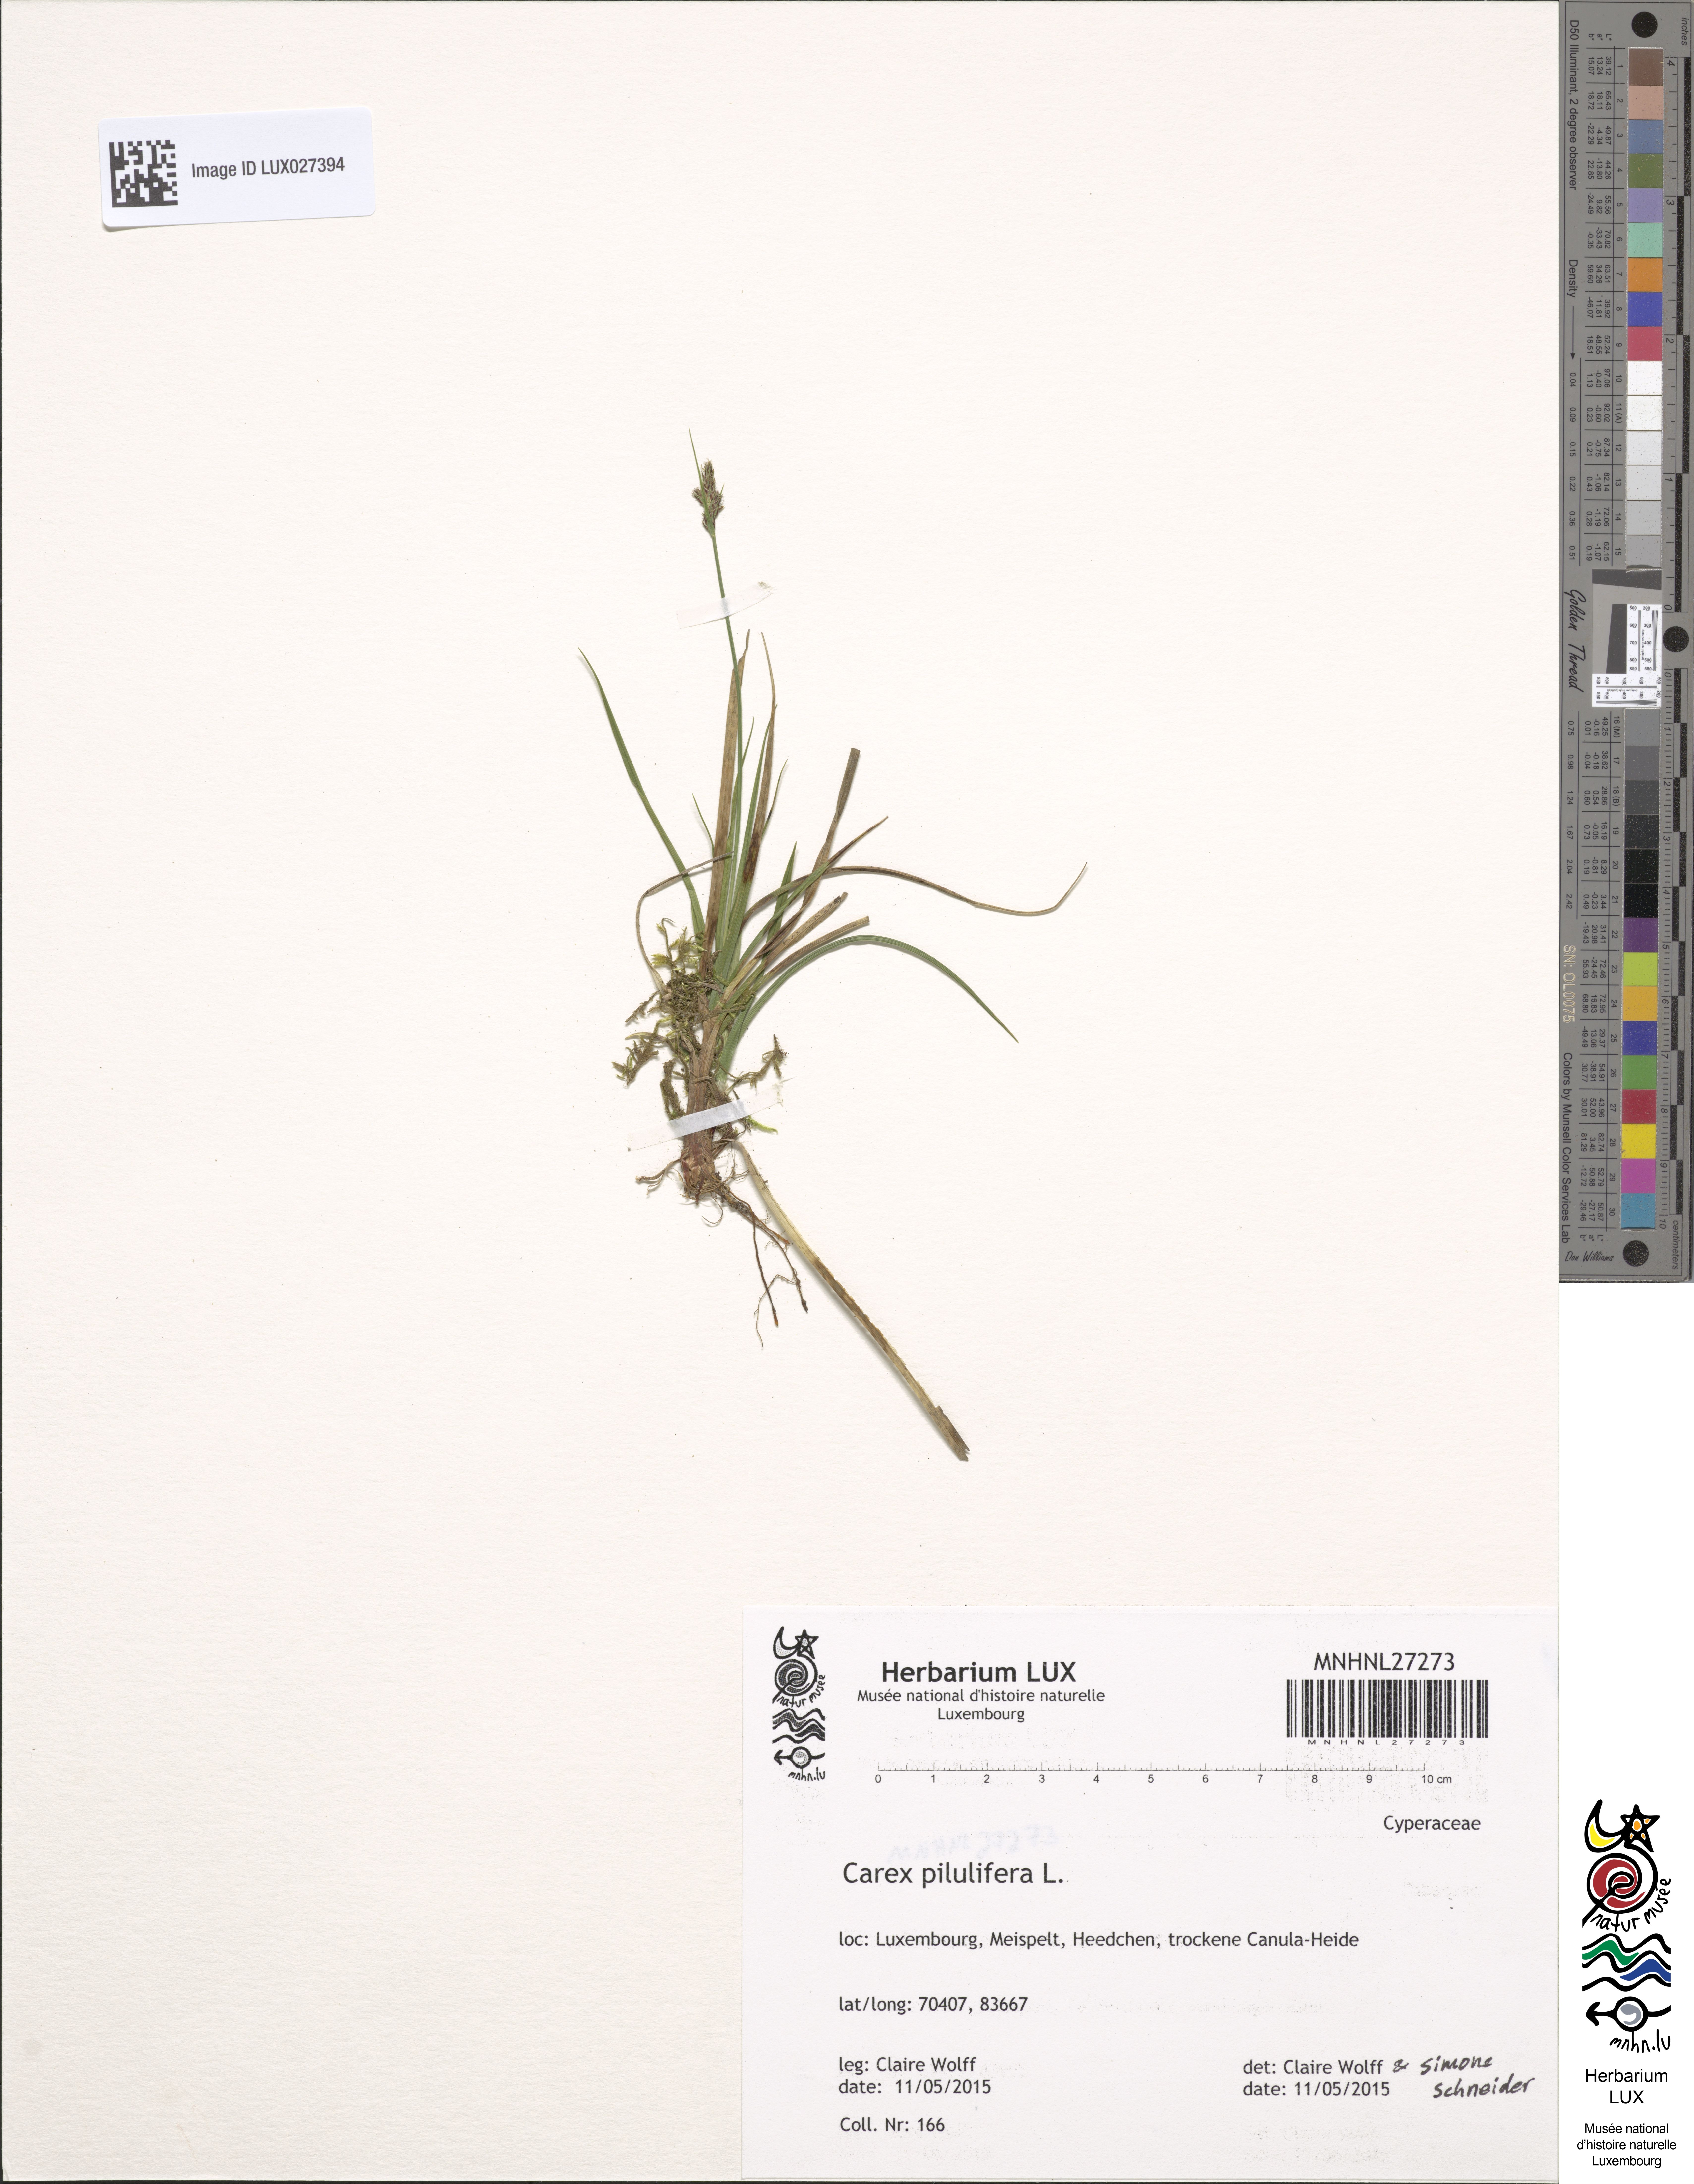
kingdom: Plantae
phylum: Tracheophyta
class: Liliopsida
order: Poales
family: Cyperaceae
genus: Carex
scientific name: Carex pilulifera
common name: Pill sedge
